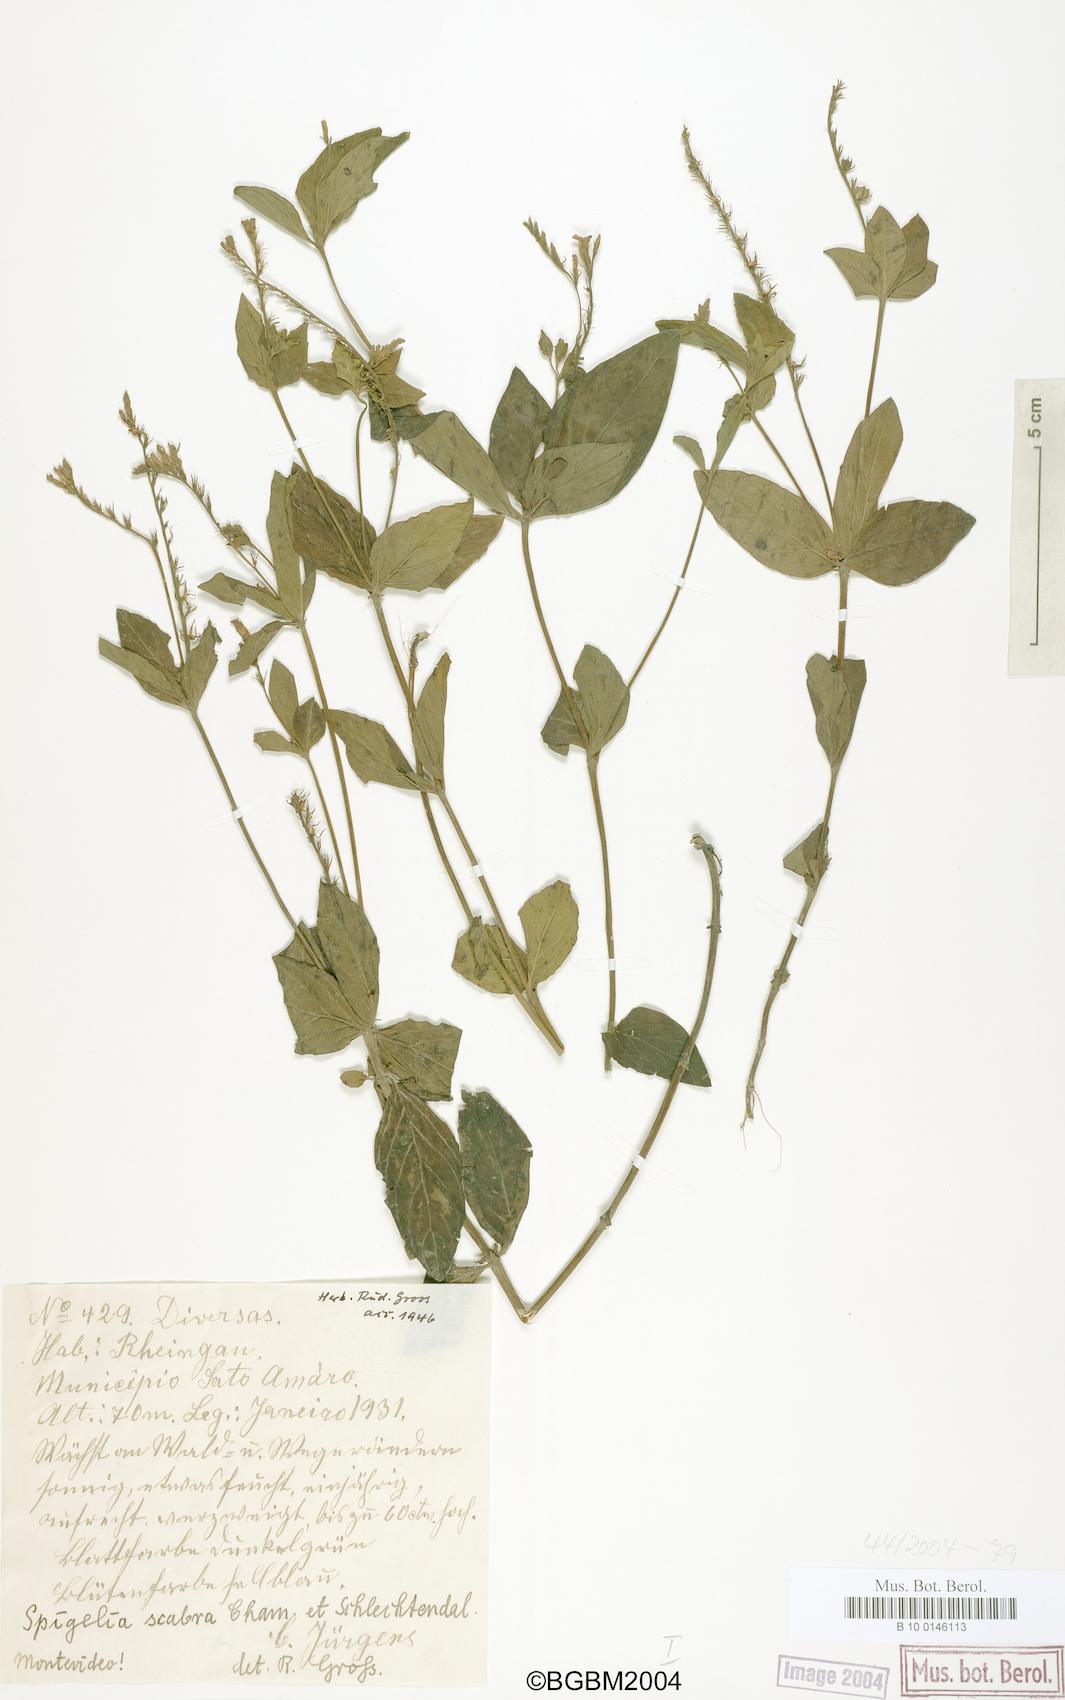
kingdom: Plantae
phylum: Tracheophyta
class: Magnoliopsida
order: Gentianales
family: Loganiaceae
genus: Spigelia
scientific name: Spigelia humboldtiana
